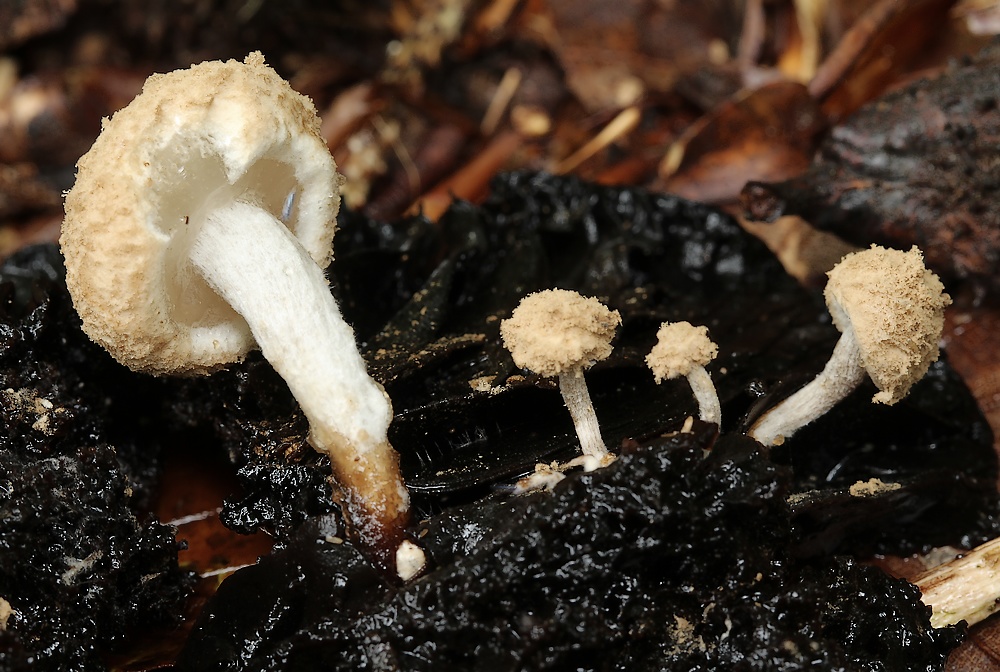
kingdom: Fungi
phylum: Basidiomycota
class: Agaricomycetes
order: Agaricales
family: Lyophyllaceae
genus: Asterophora
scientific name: Asterophora lycoperdoides
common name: brunpudret snyltehat
